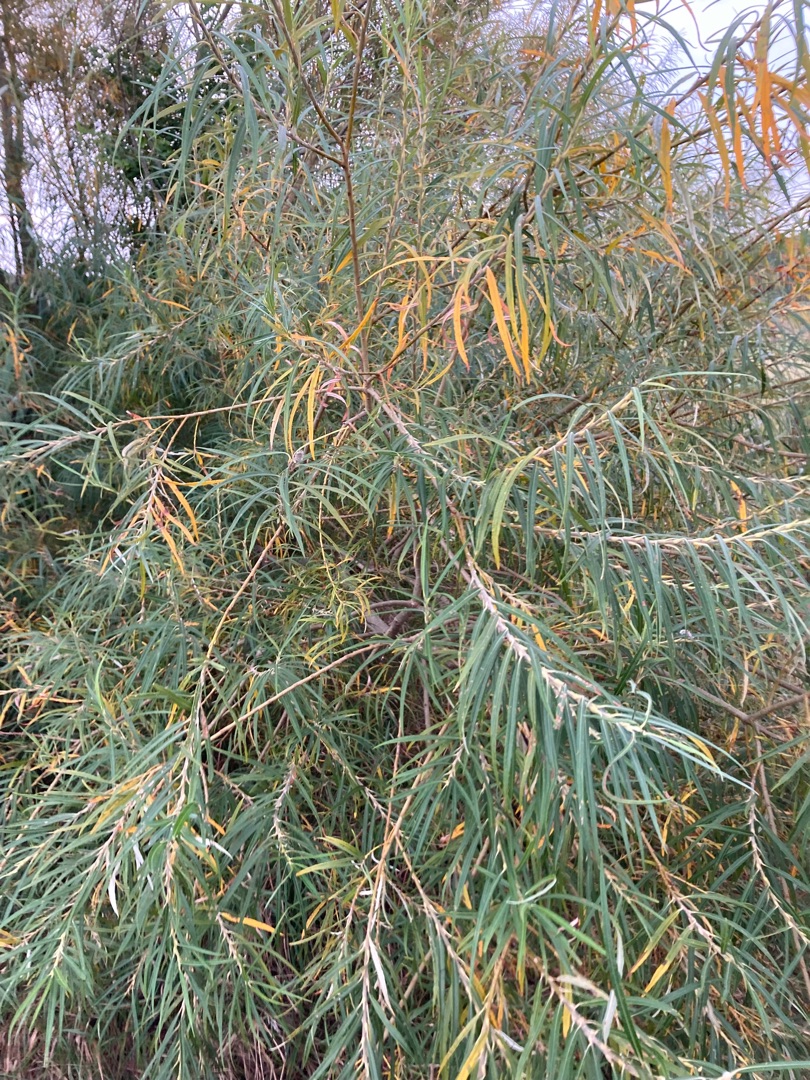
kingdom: Plantae
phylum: Tracheophyta
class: Magnoliopsida
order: Malpighiales
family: Salicaceae
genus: Salix
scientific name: Salix viminalis
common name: Bånd-pil
